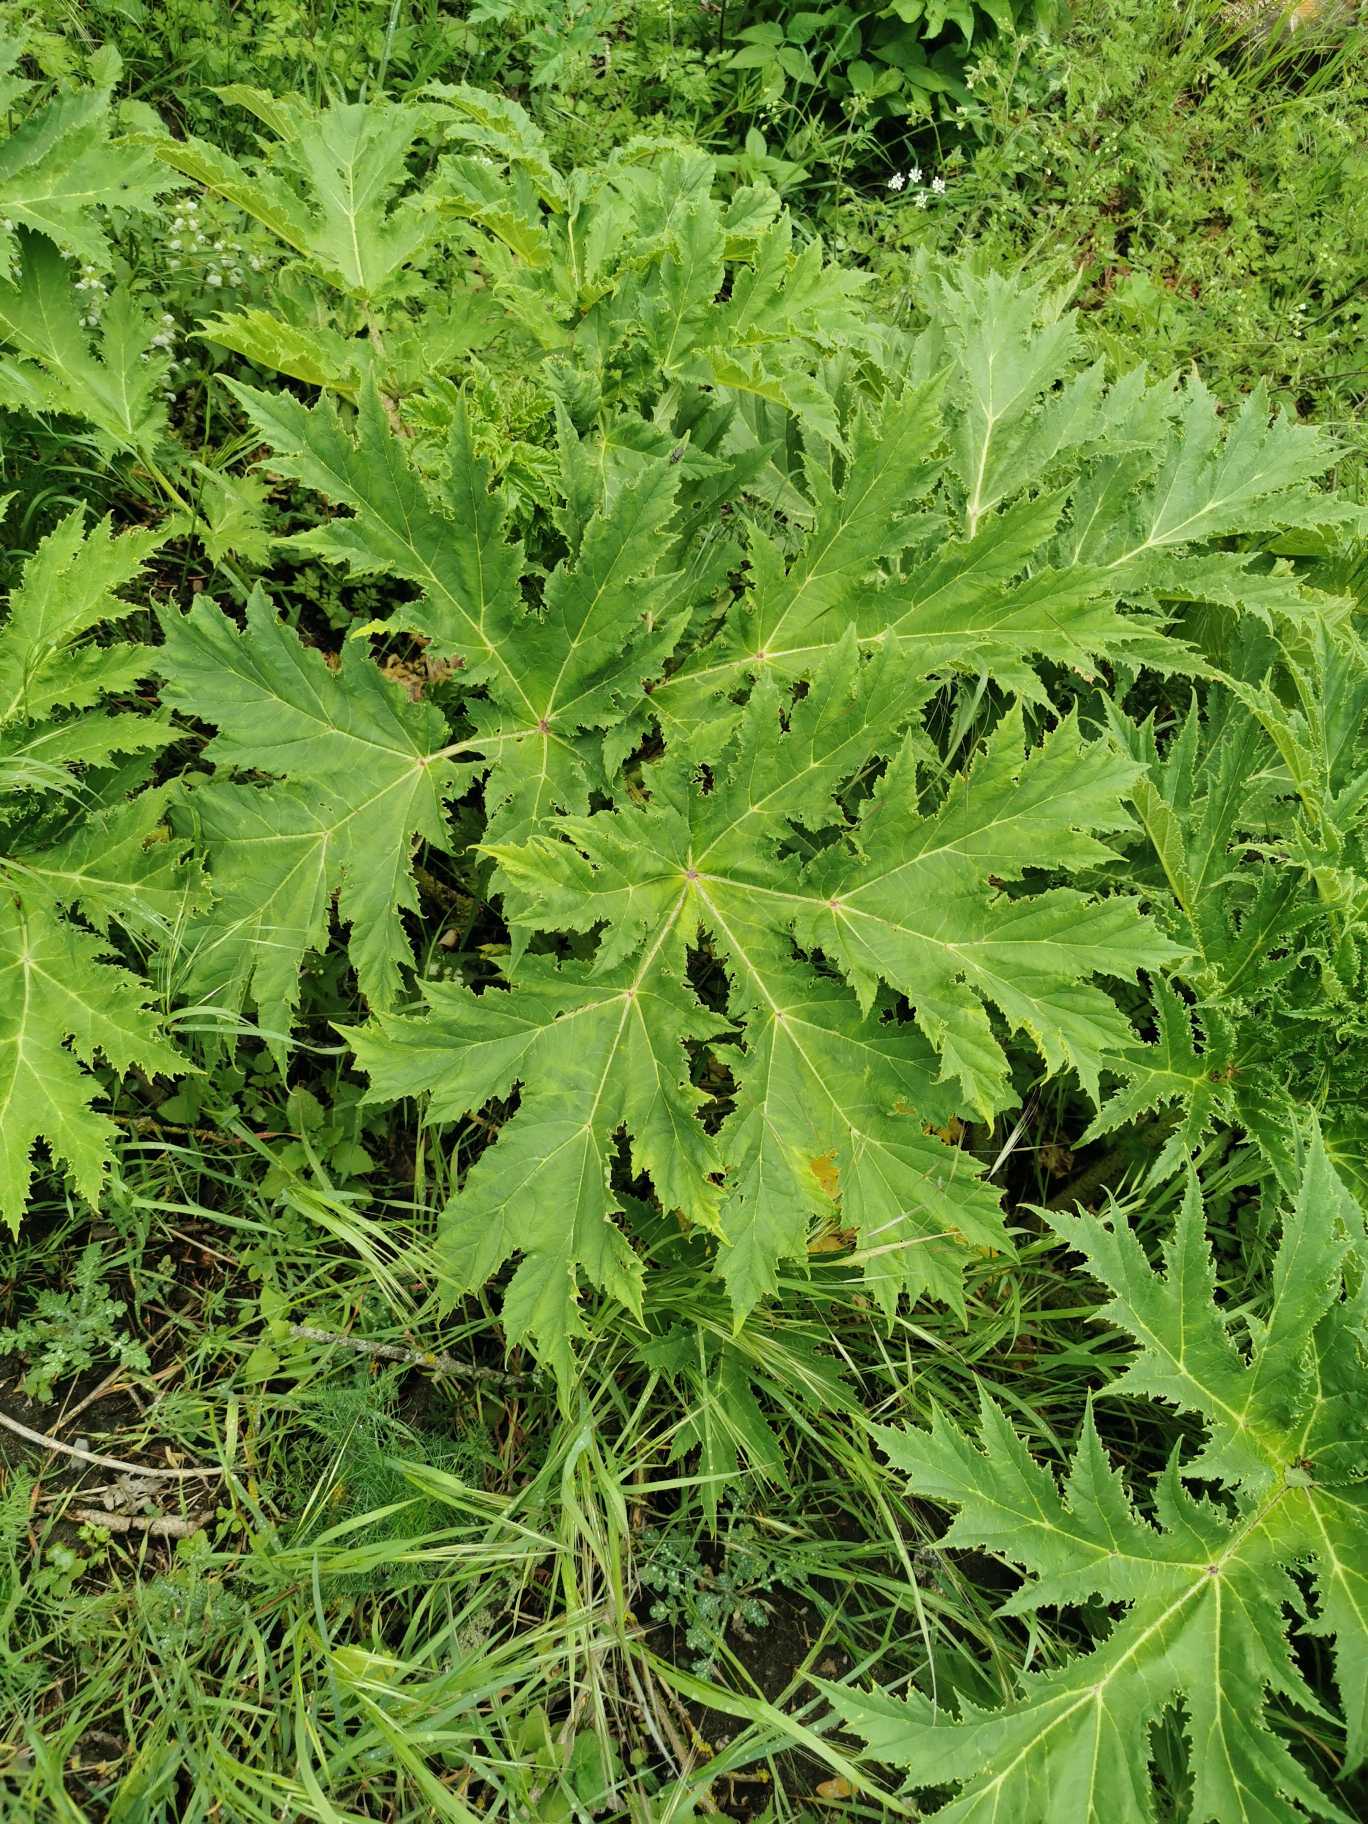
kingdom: Plantae
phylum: Tracheophyta
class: Magnoliopsida
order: Apiales
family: Apiaceae
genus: Heracleum
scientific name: Heracleum mantegazzianum
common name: Kæmpe-bjørneklo
